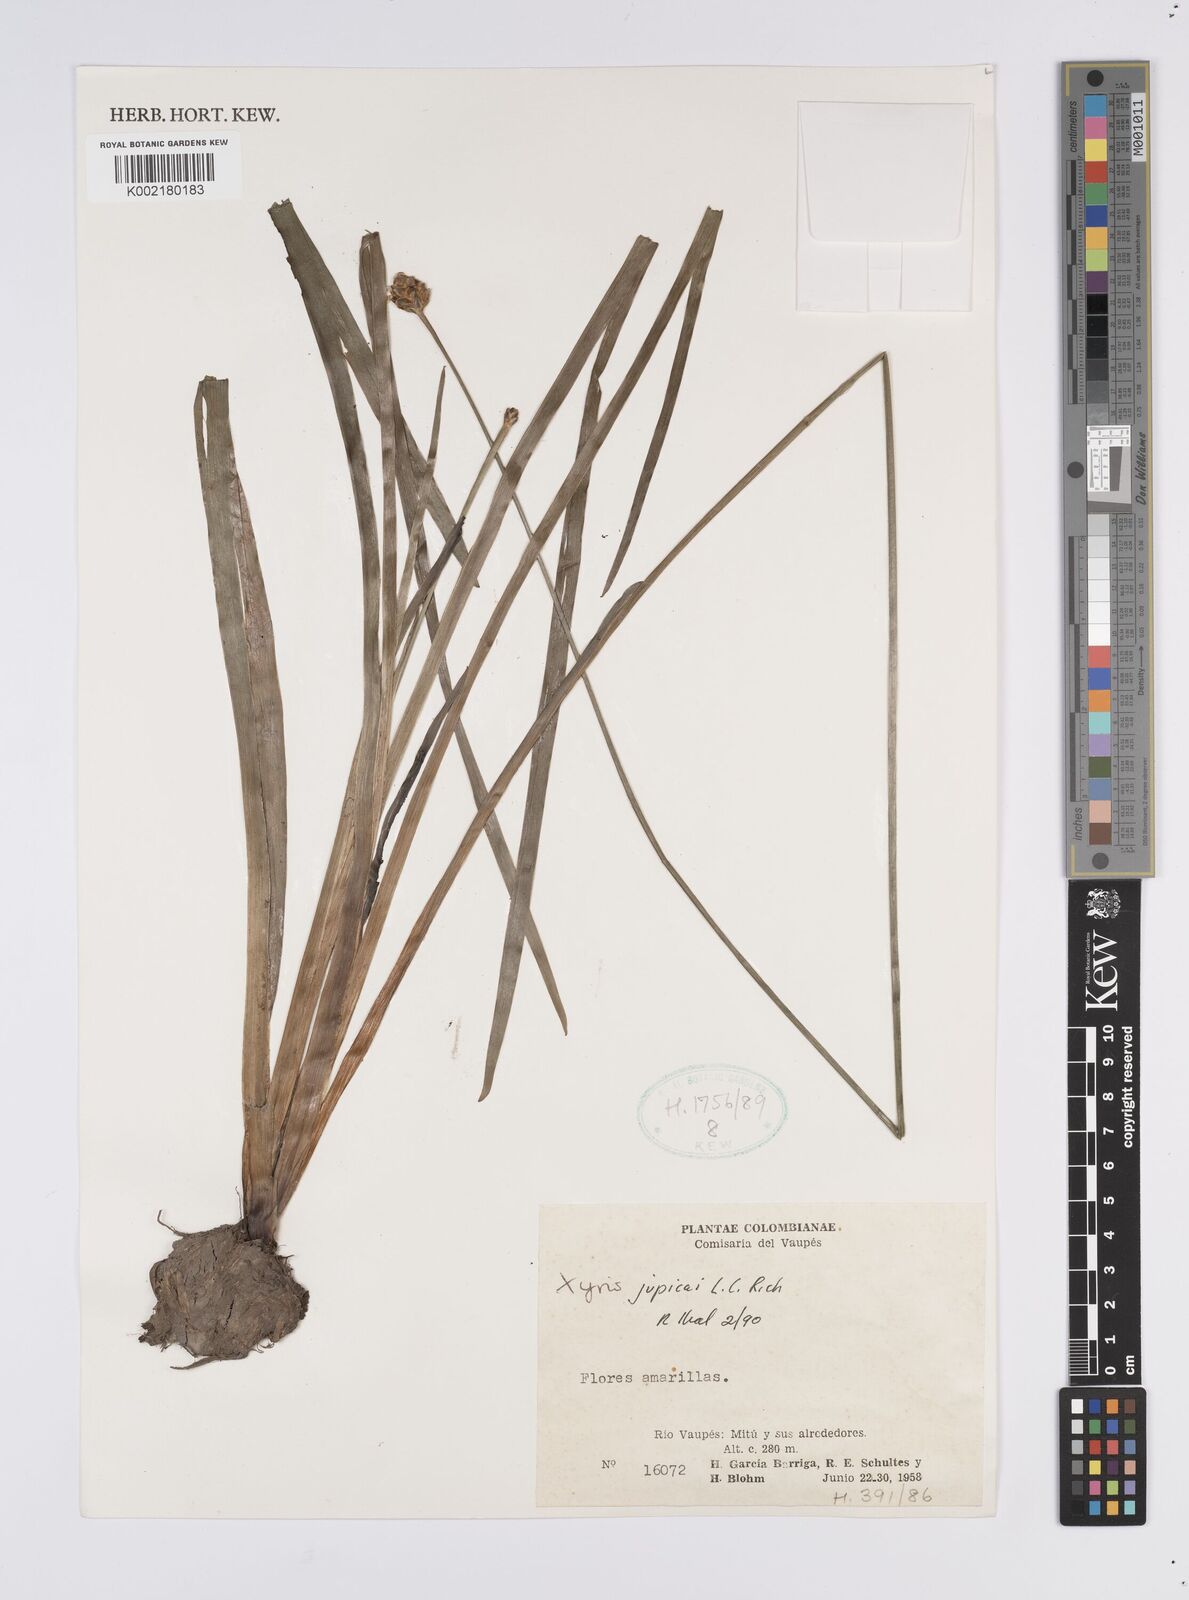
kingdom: Plantae
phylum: Tracheophyta
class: Liliopsida
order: Poales
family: Xyridaceae
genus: Xyris
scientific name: Xyris jupicai
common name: Richard's yelloweyed grass
